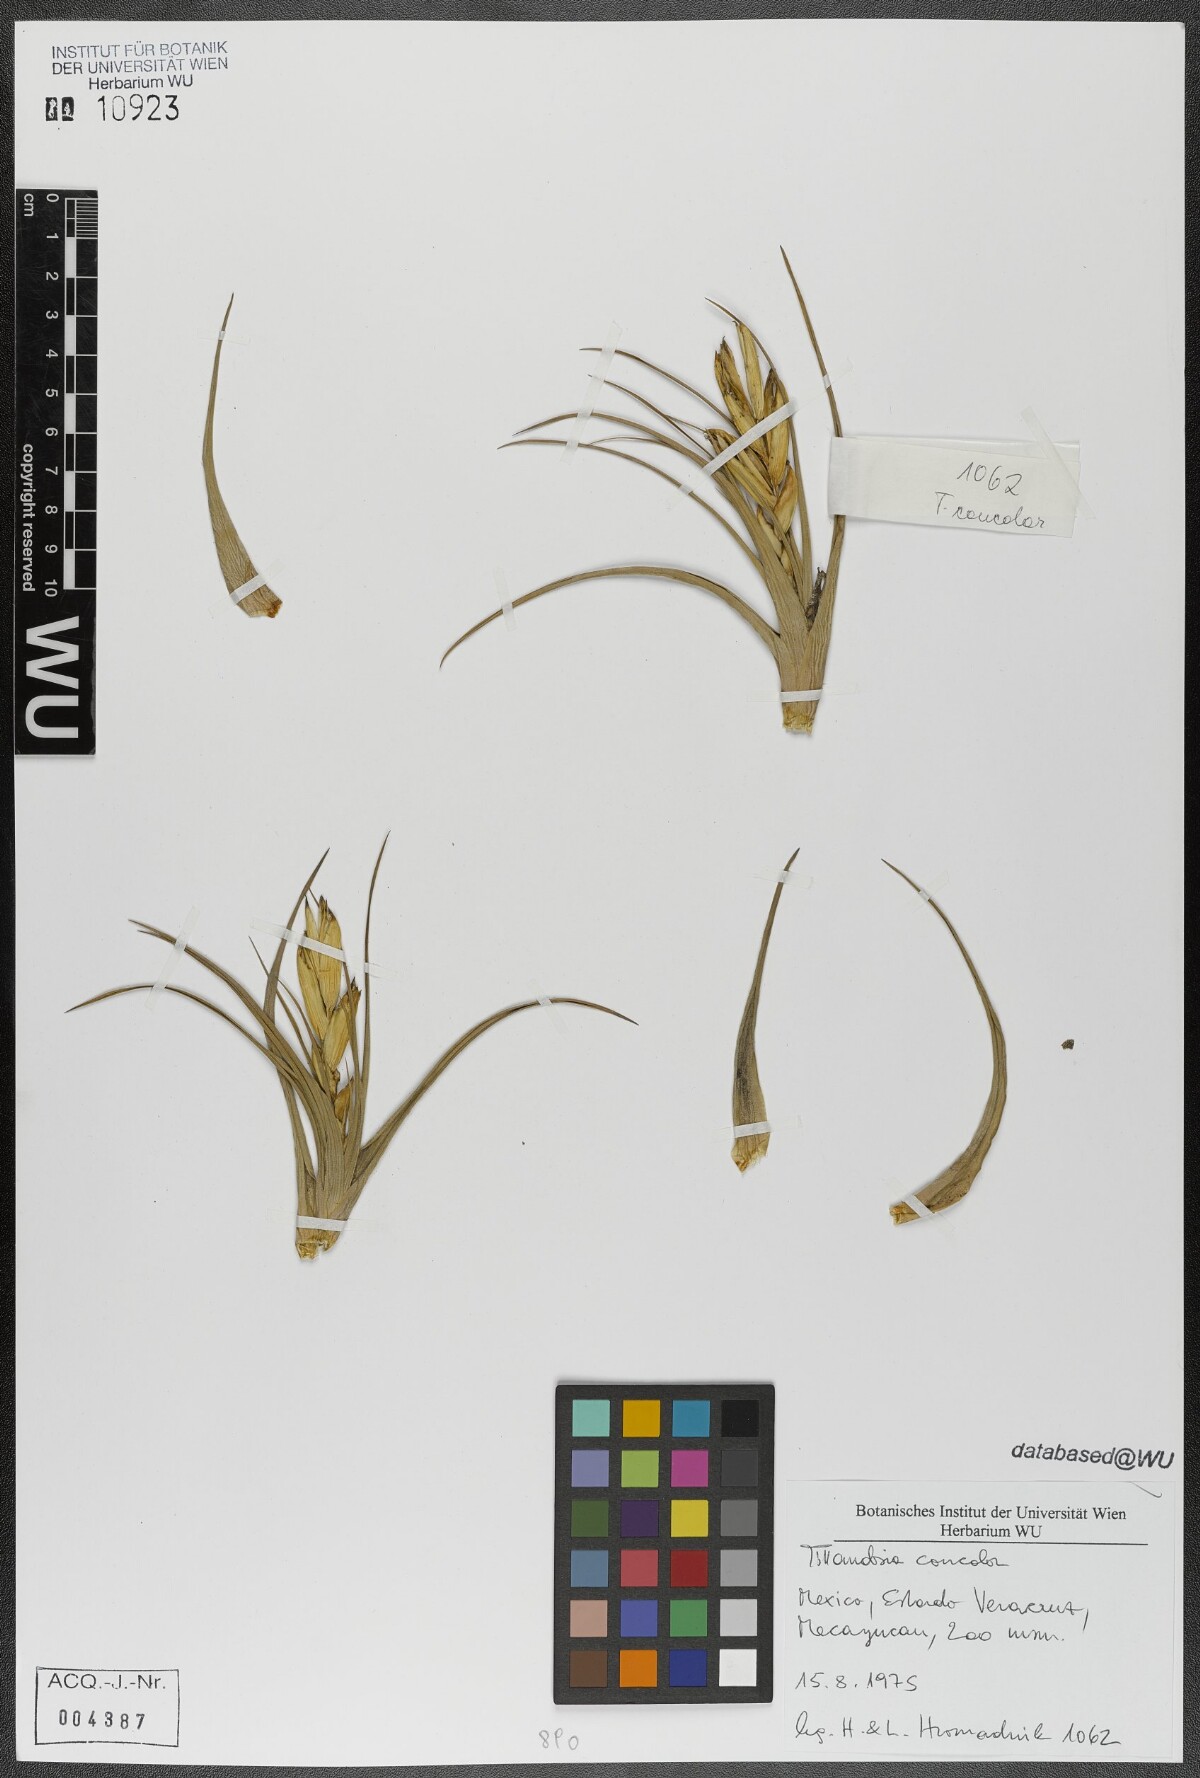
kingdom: Plantae
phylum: Tracheophyta
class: Liliopsida
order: Poales
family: Bromeliaceae
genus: Tillandsia
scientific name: Tillandsia concolor
